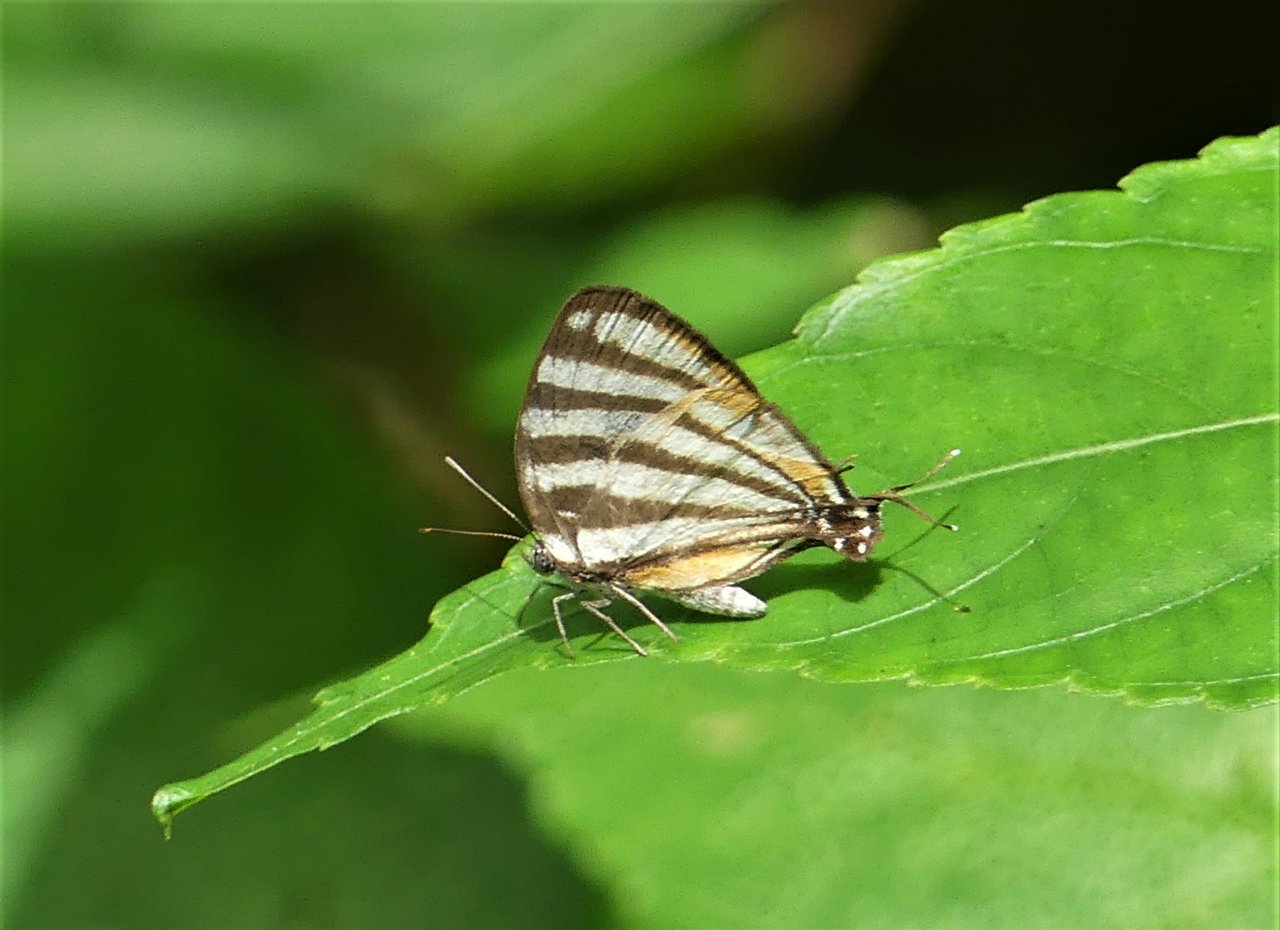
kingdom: Animalia
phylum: Arthropoda
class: Insecta
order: Lepidoptera
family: Lycaenidae
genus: Arawacus
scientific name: Arawacus togarna
